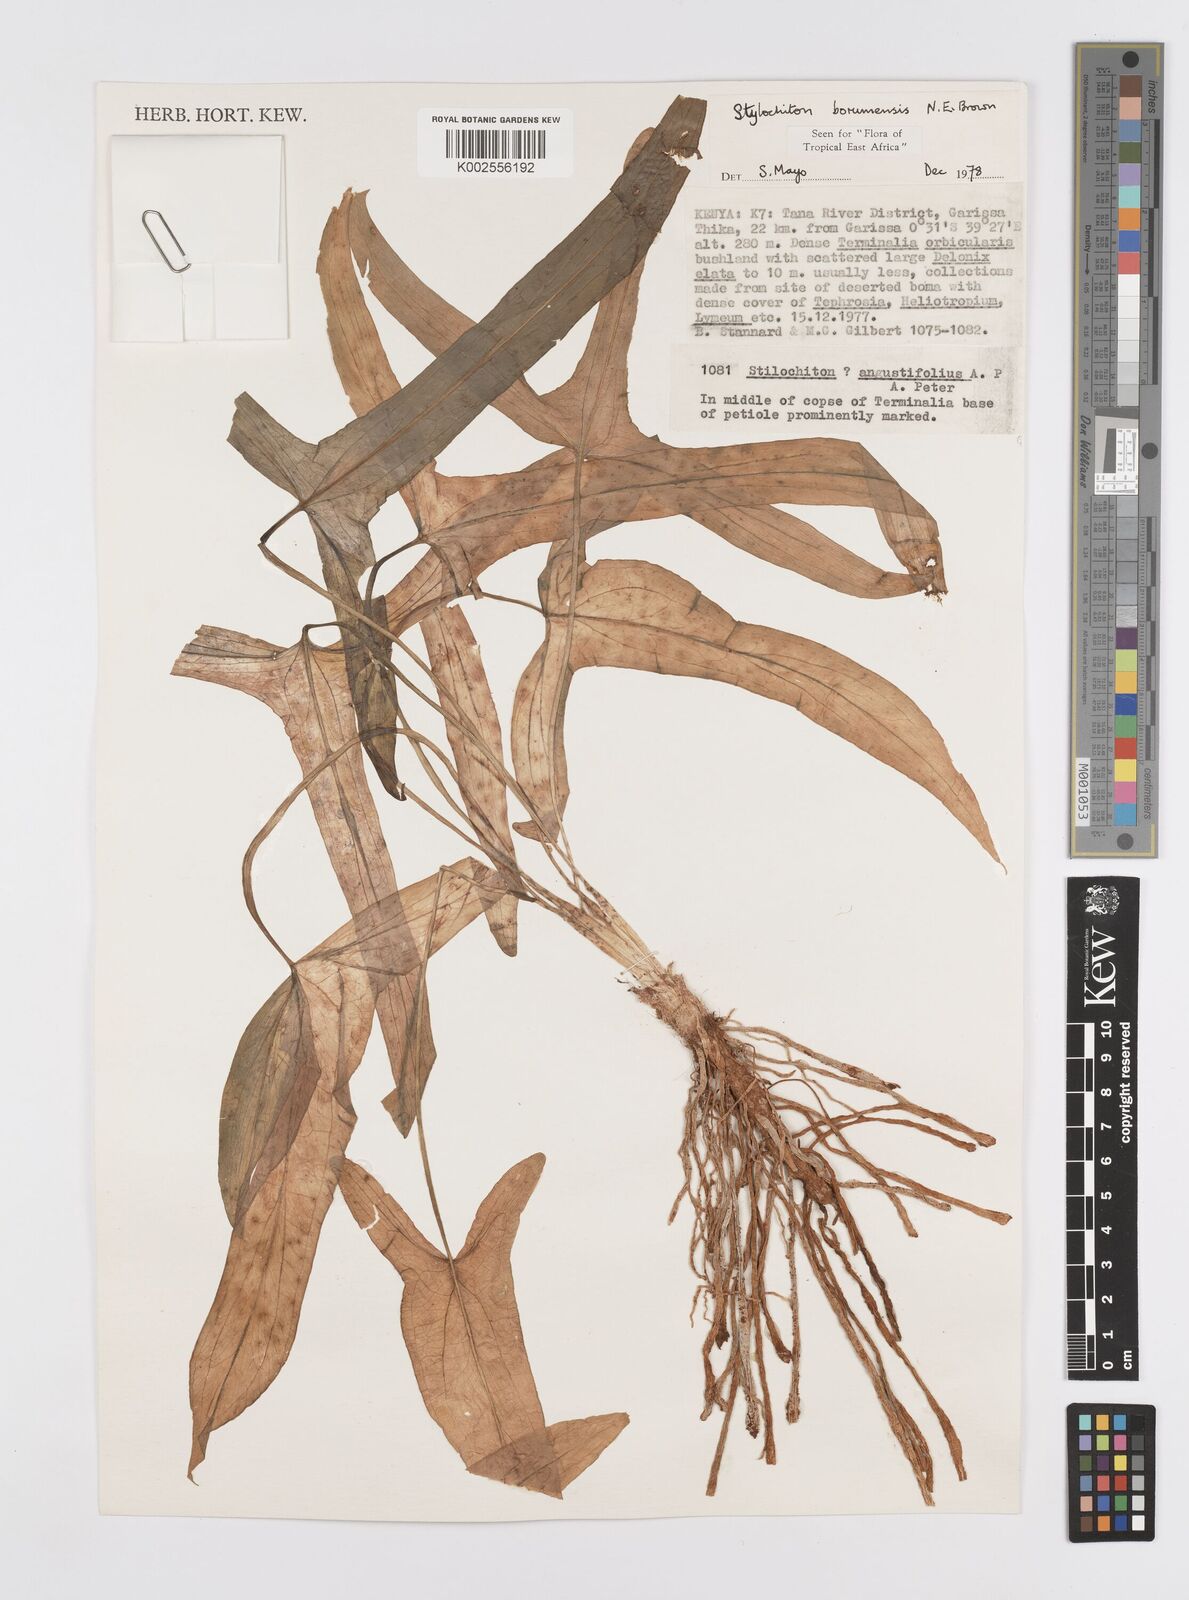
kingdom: Plantae
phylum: Tracheophyta
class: Liliopsida
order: Alismatales
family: Araceae
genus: Stylochaeton
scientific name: Stylochaeton borumense
